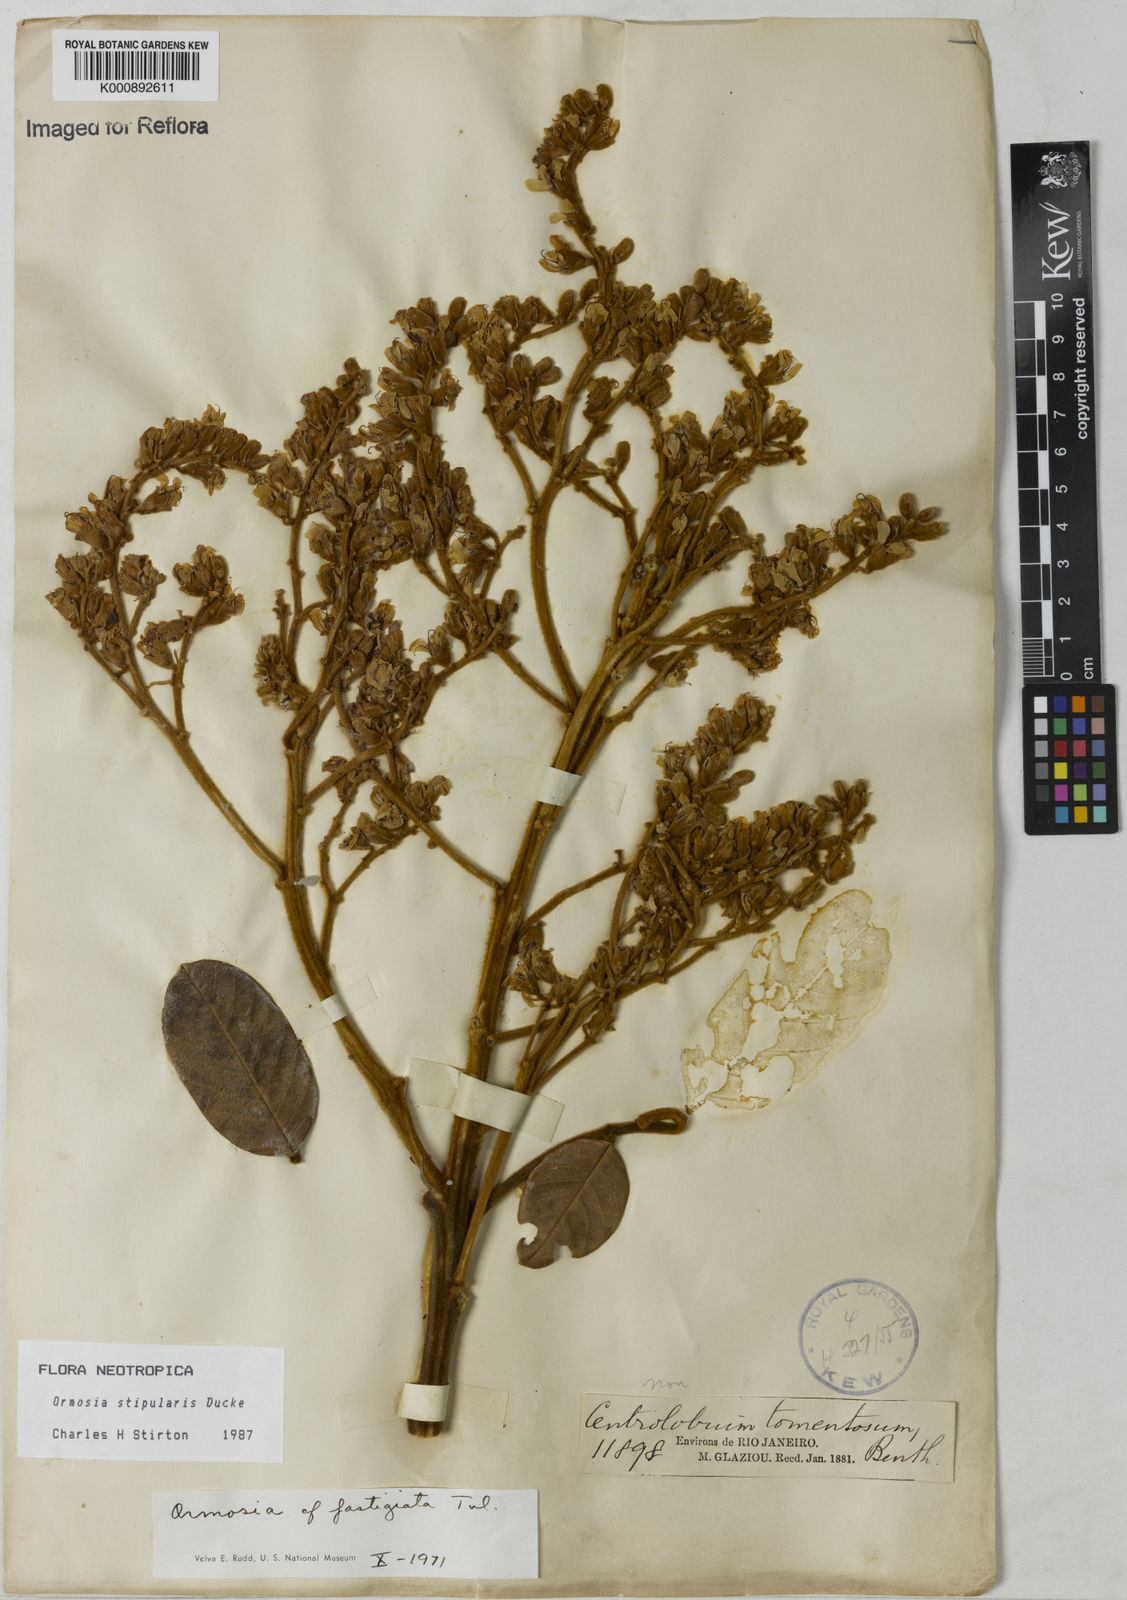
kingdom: Plantae
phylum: Tracheophyta
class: Magnoliopsida
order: Fabales
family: Fabaceae
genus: Ormosia
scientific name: Ormosia stipularis
